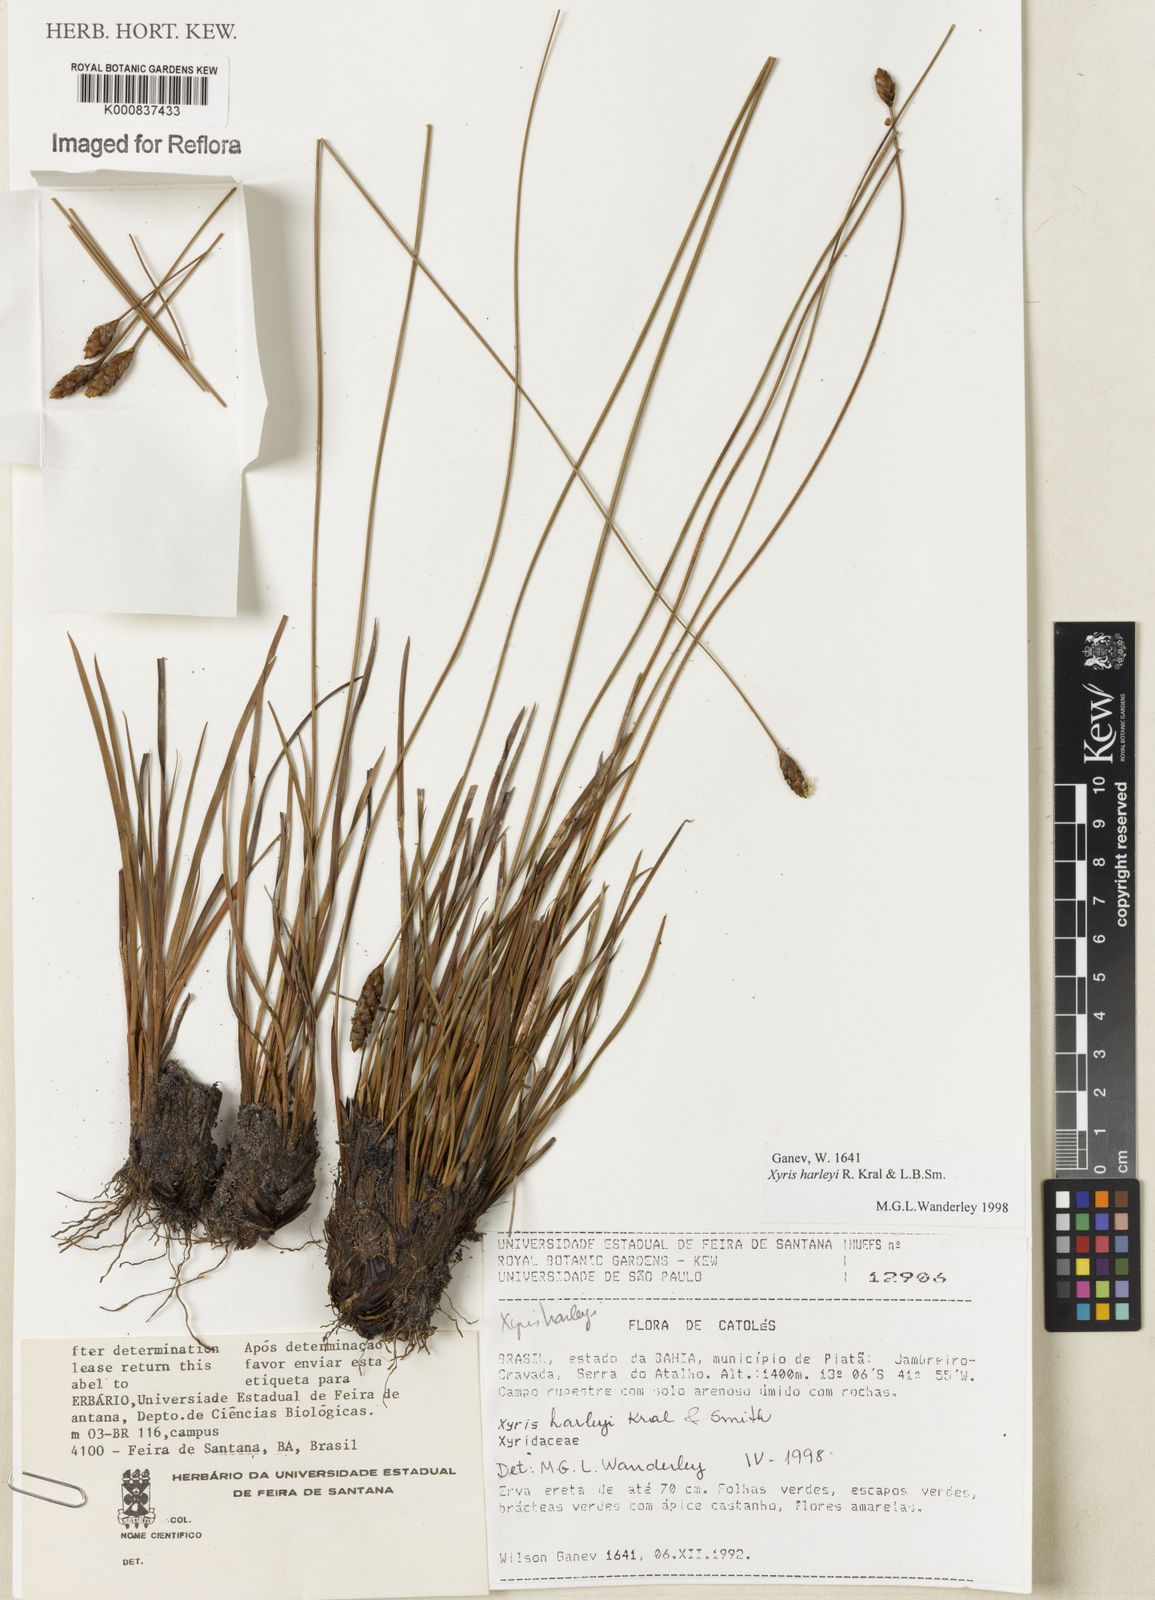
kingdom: Plantae
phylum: Tracheophyta
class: Liliopsida
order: Poales
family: Xyridaceae
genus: Xyris
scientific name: Xyris harleyi
